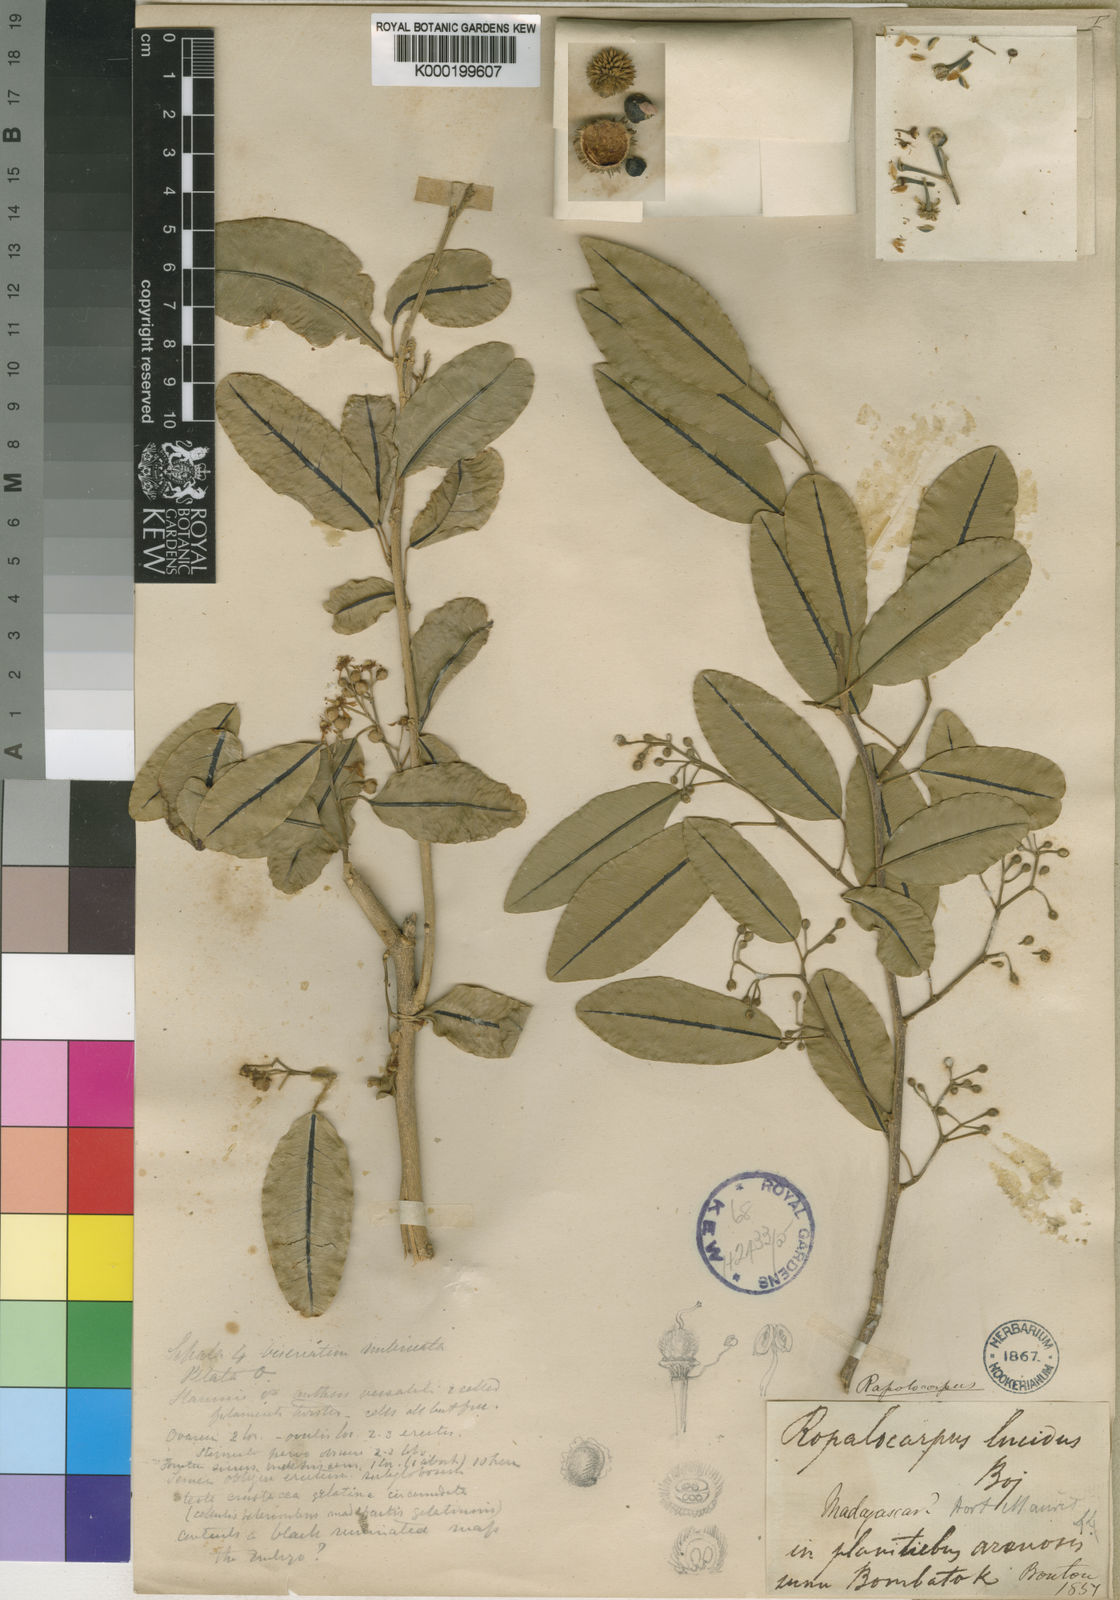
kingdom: Plantae
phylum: Tracheophyta
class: Magnoliopsida
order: Malvales
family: Sphaerosepalaceae
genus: Rhopalocarpus
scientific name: Rhopalocarpus lucidus
